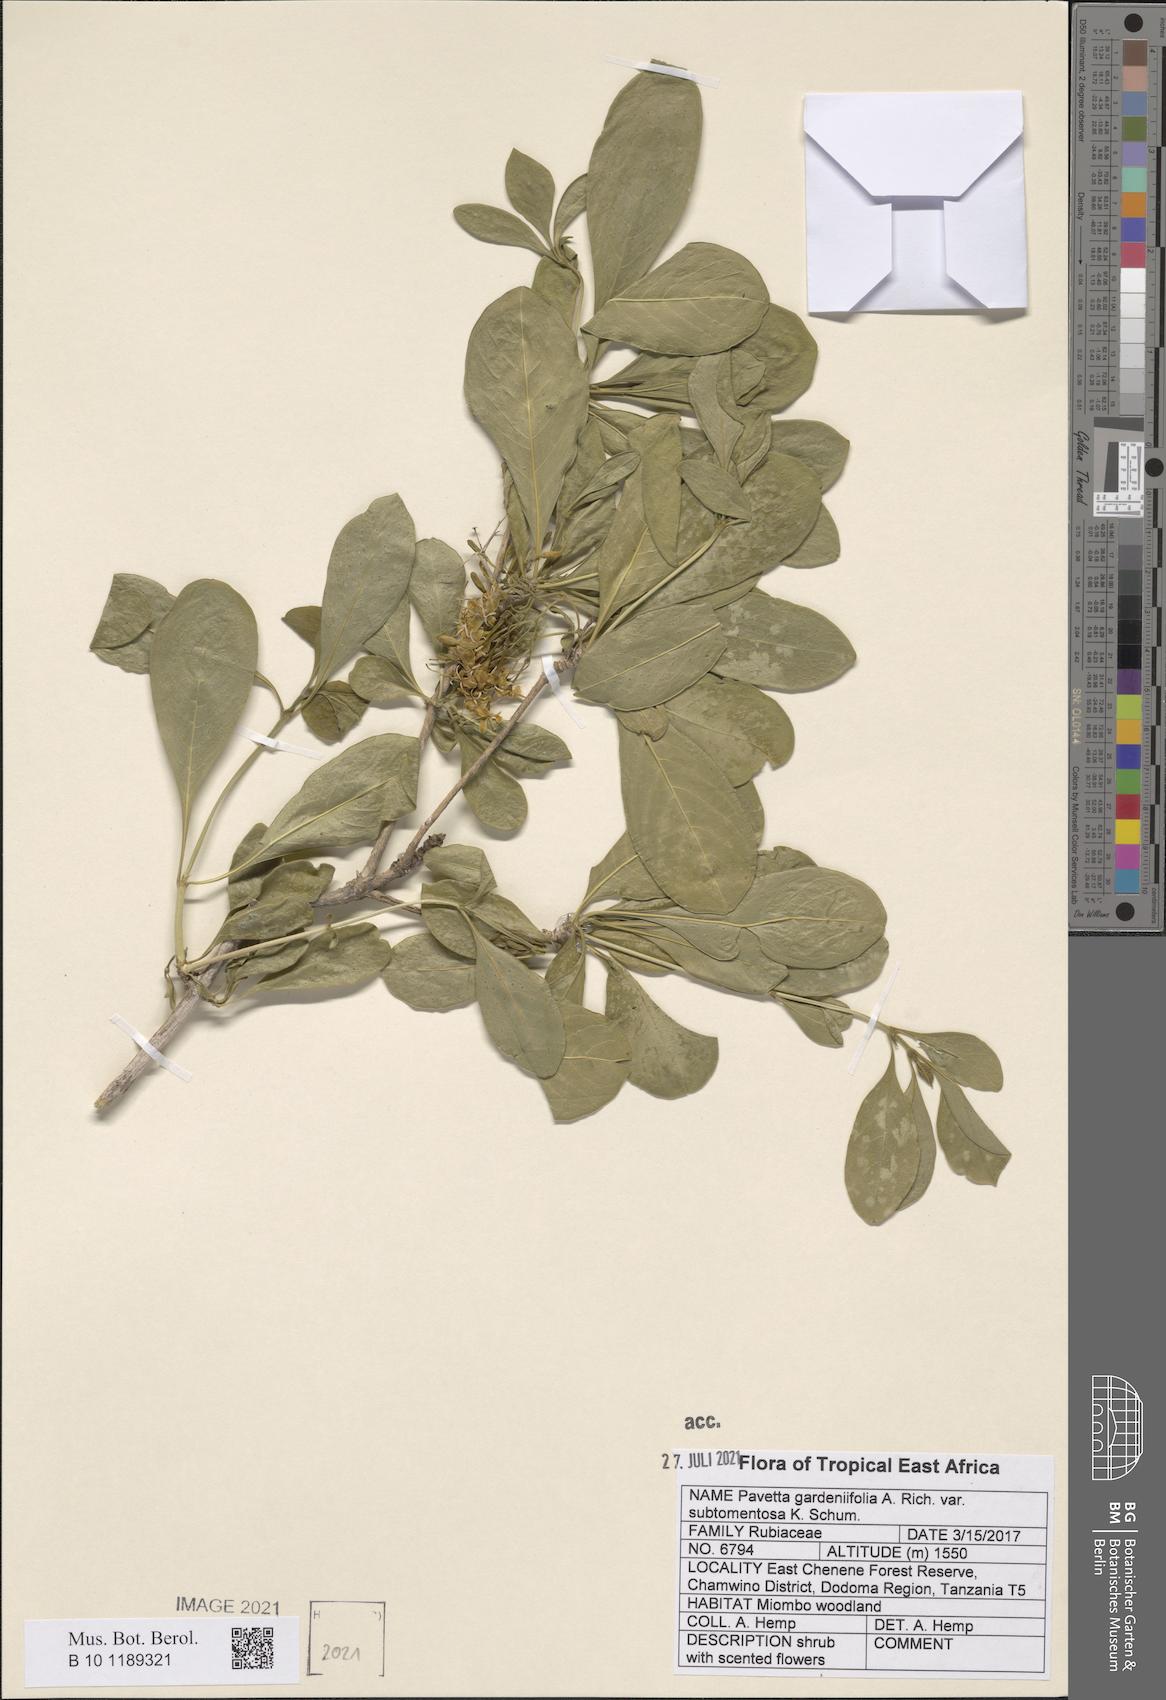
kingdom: Plantae
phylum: Tracheophyta
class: Magnoliopsida
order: Gentianales
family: Rubiaceae
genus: Pavetta
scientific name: Pavetta gardeniifolia
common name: Common brides-bush
